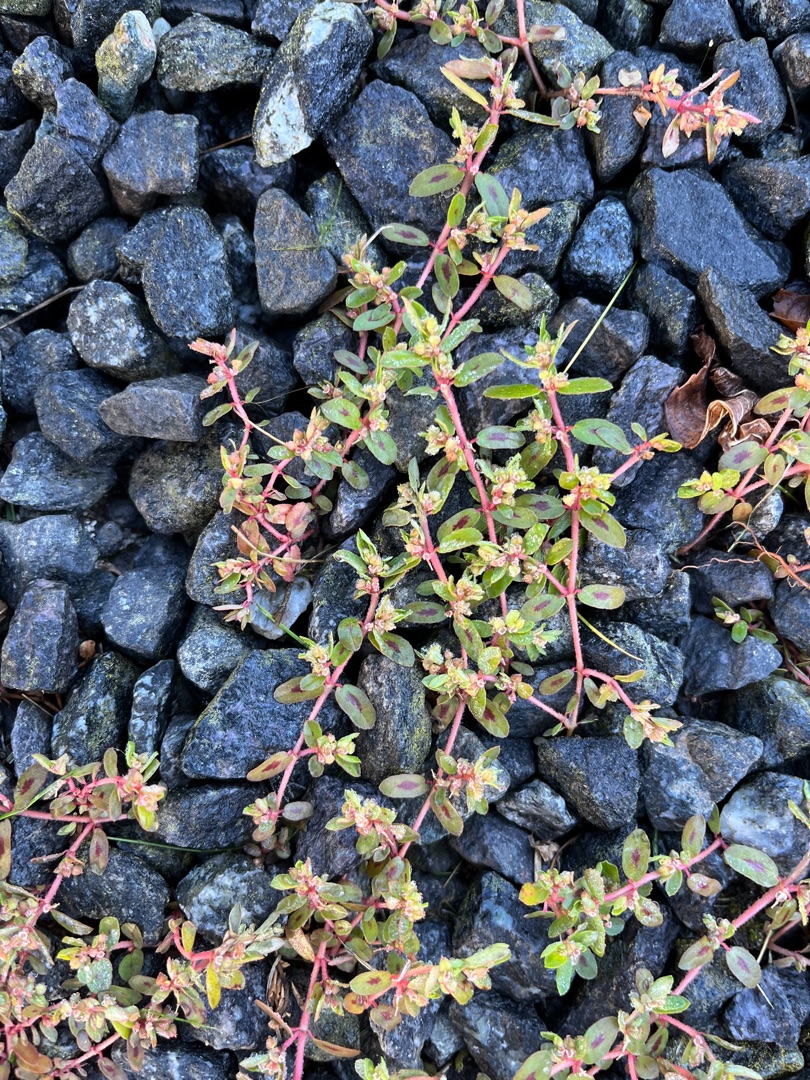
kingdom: Plantae
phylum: Tracheophyta
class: Magnoliopsida
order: Malpighiales
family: Euphorbiaceae
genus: Euphorbia
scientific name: Euphorbia maculata
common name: Plet-vortemælk
